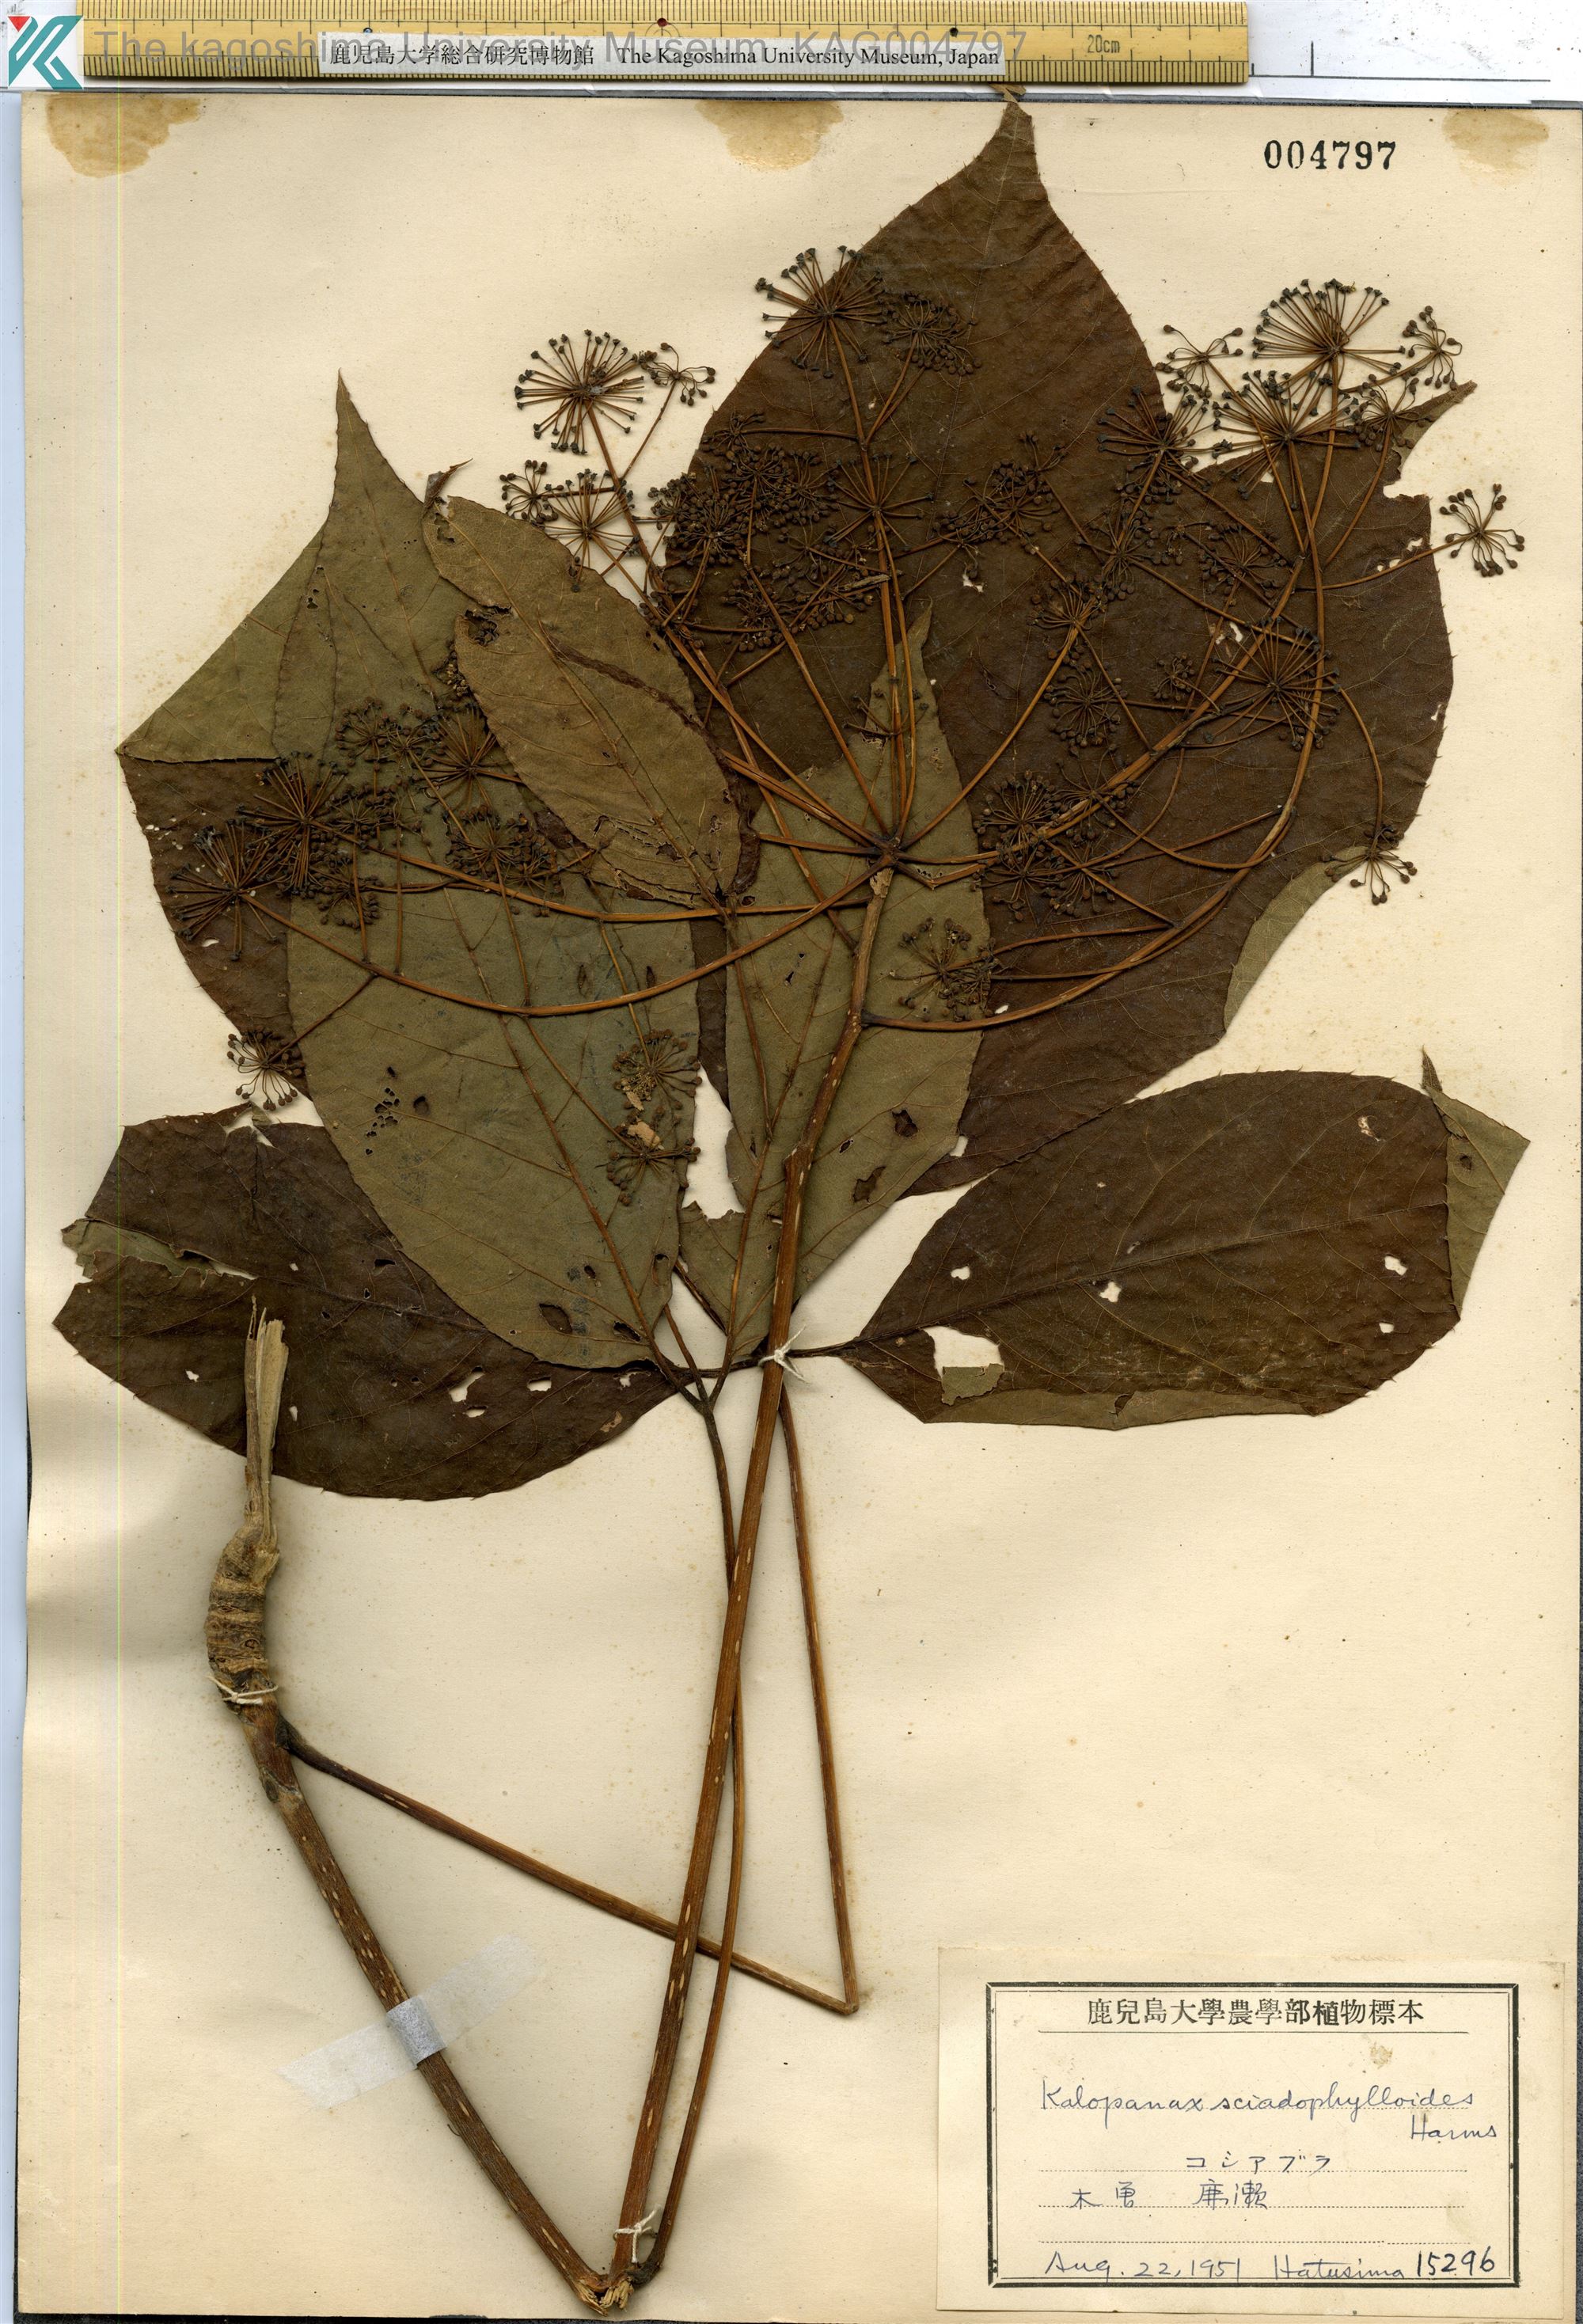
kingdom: Plantae
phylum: Tracheophyta
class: Magnoliopsida
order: Apiales
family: Araliaceae
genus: Chengiopanax
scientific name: Chengiopanax sciadophylloides
